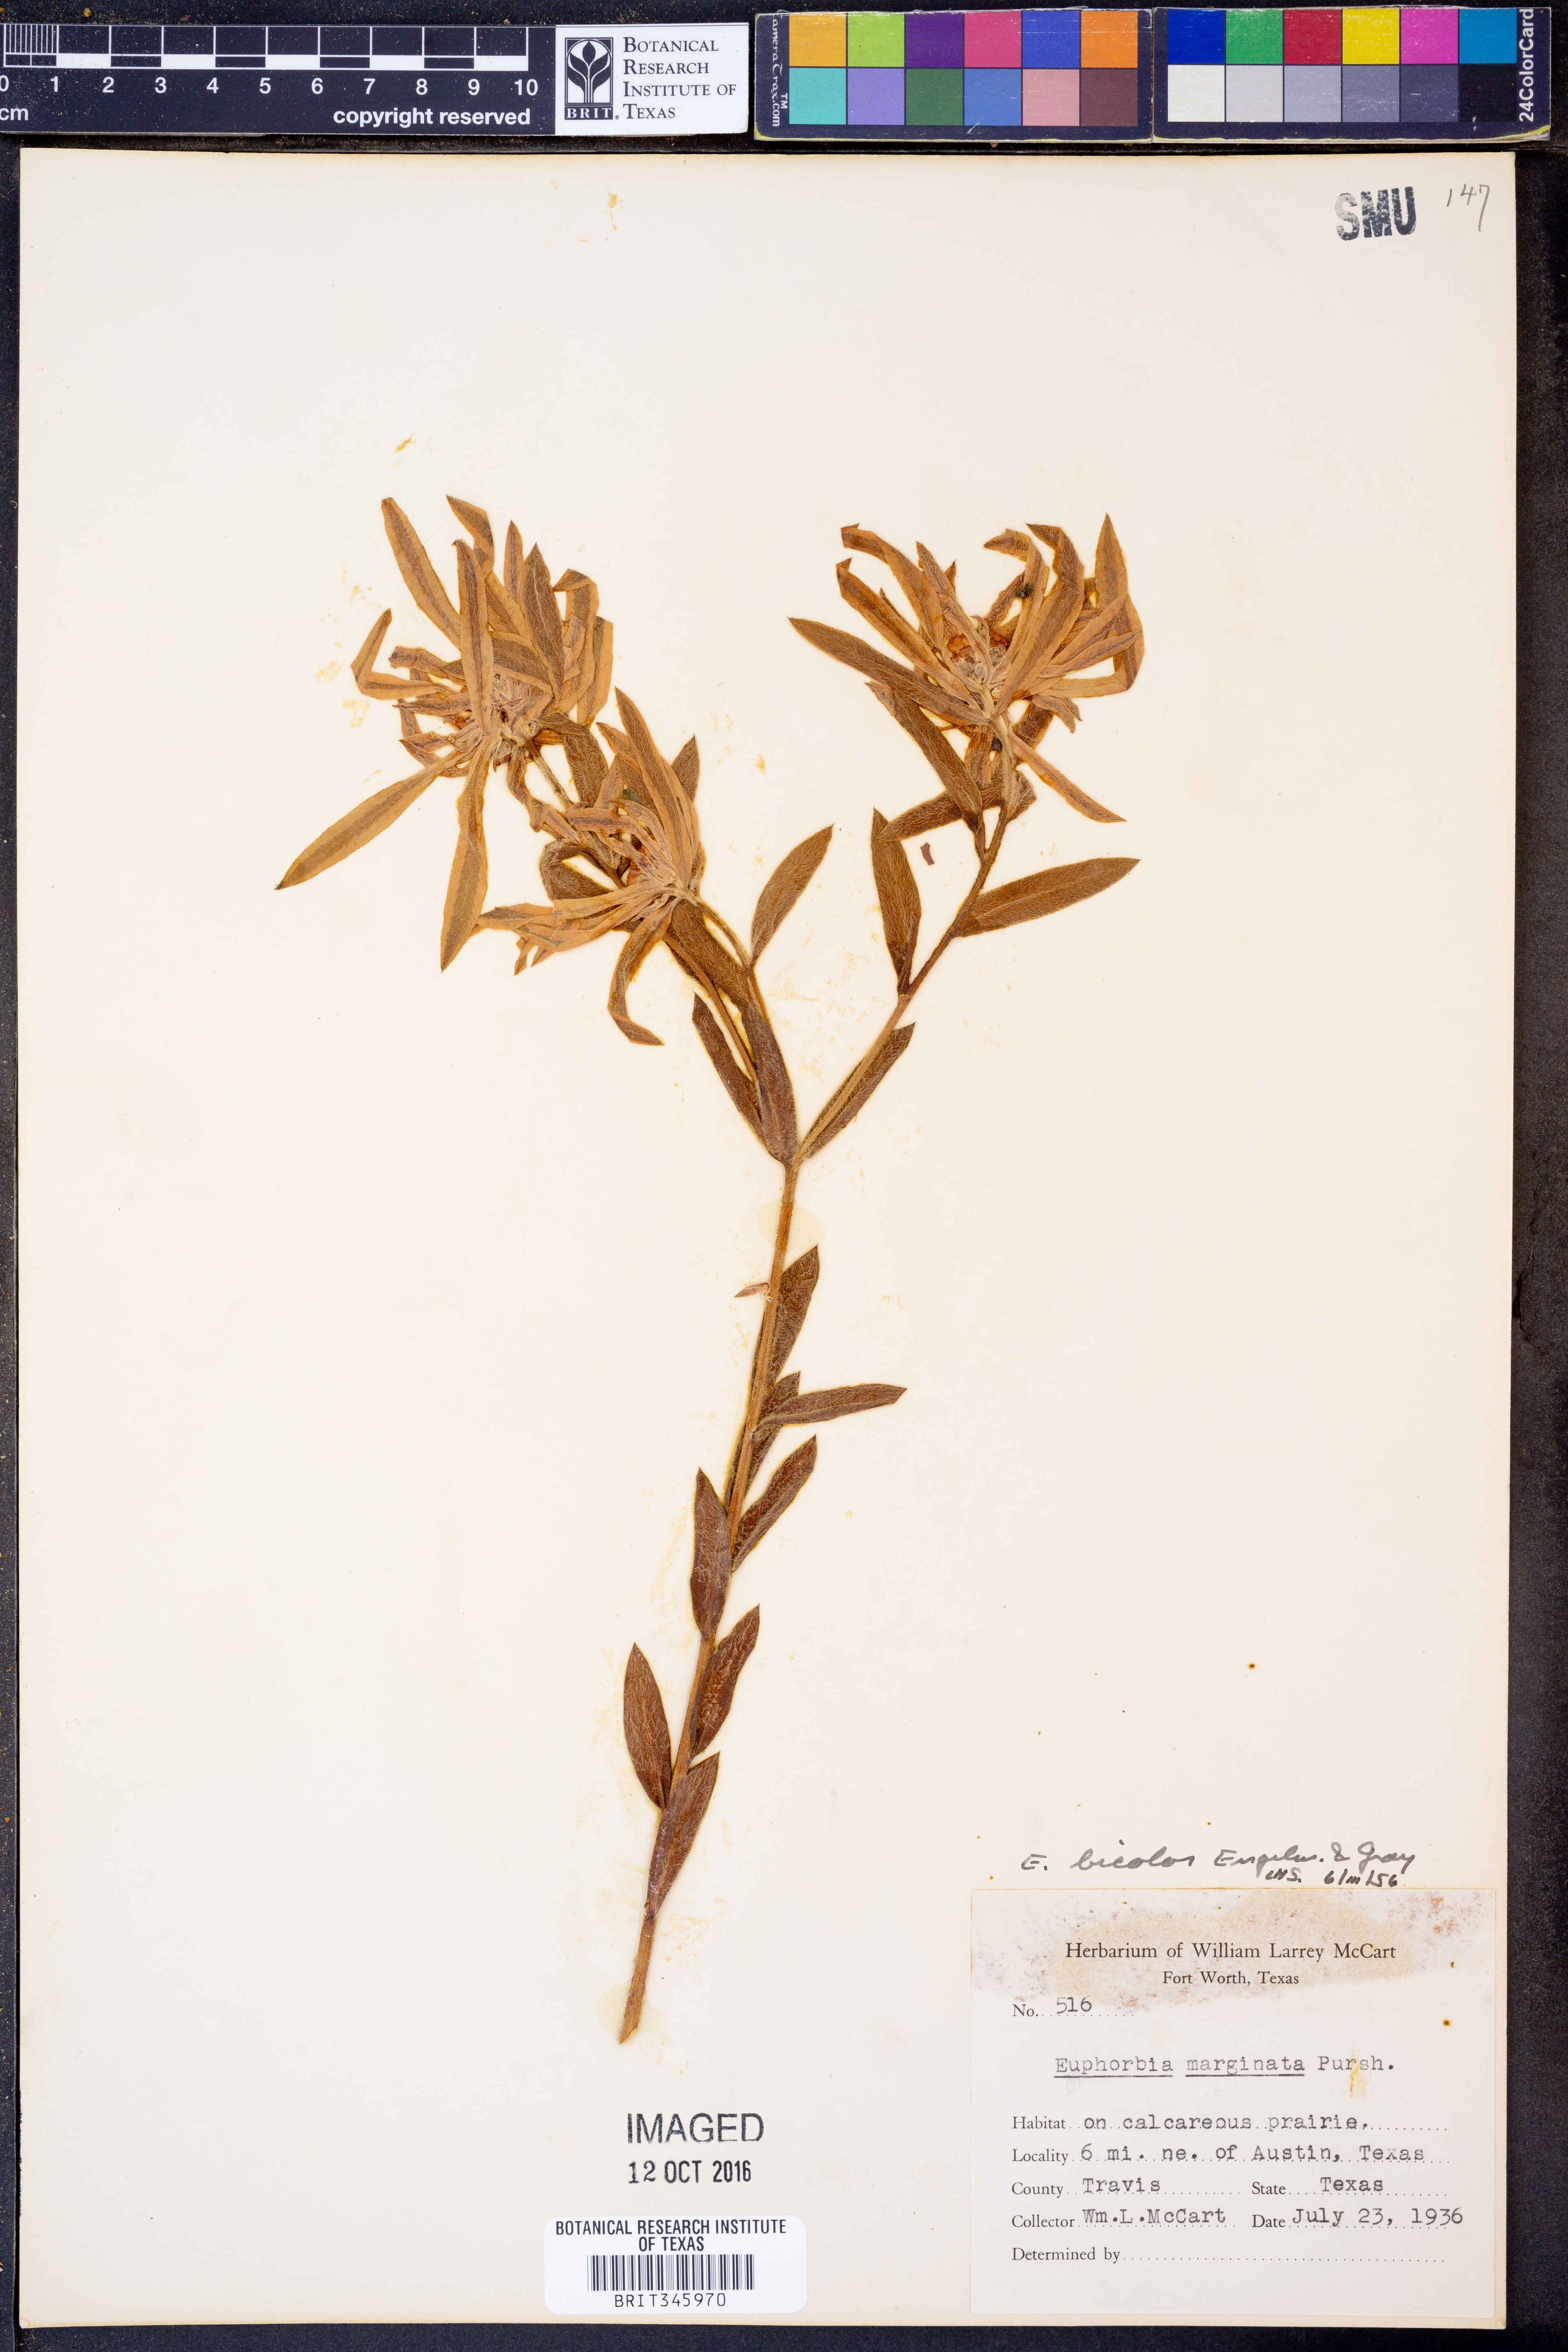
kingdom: Plantae
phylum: Tracheophyta
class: Magnoliopsida
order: Malpighiales
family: Euphorbiaceae
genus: Euphorbia
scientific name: Euphorbia bicolor
